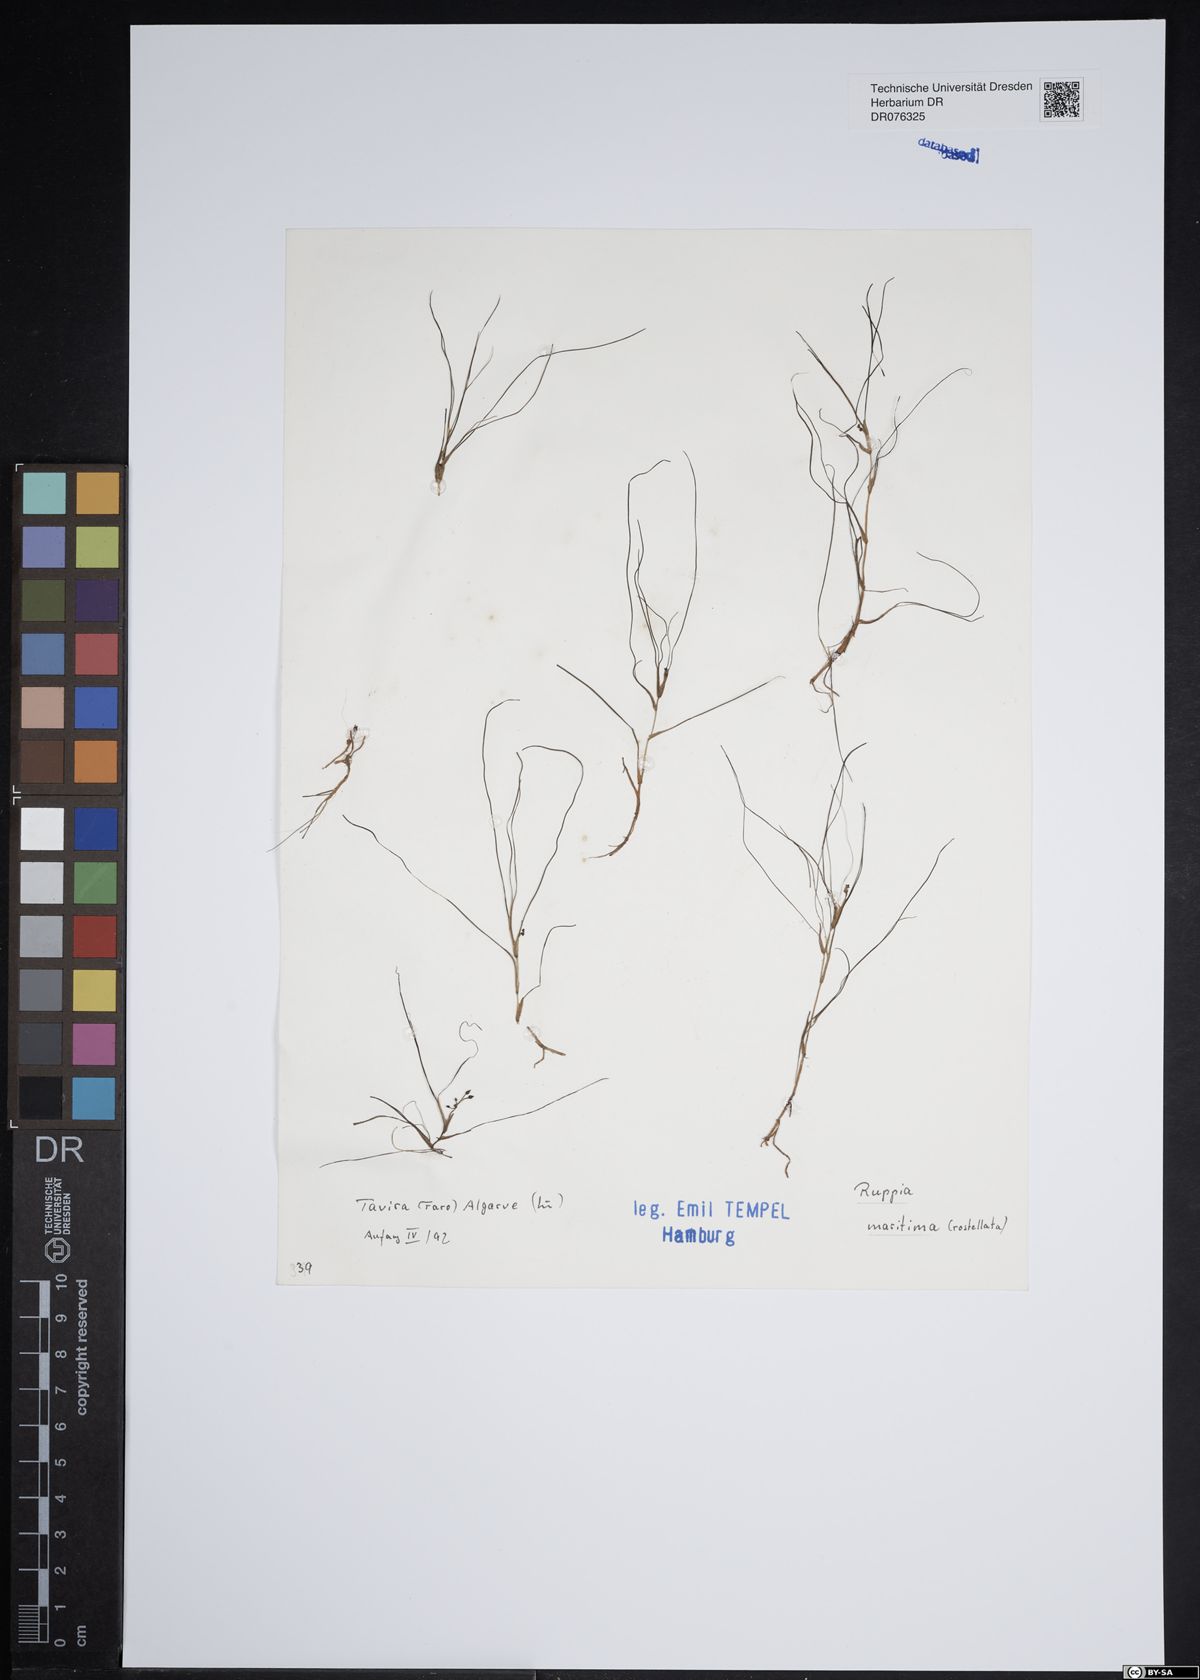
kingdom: Plantae
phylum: Tracheophyta
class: Liliopsida
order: Alismatales
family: Ruppiaceae
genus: Ruppia
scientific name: Ruppia maritima
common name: Beaked tasselweed
